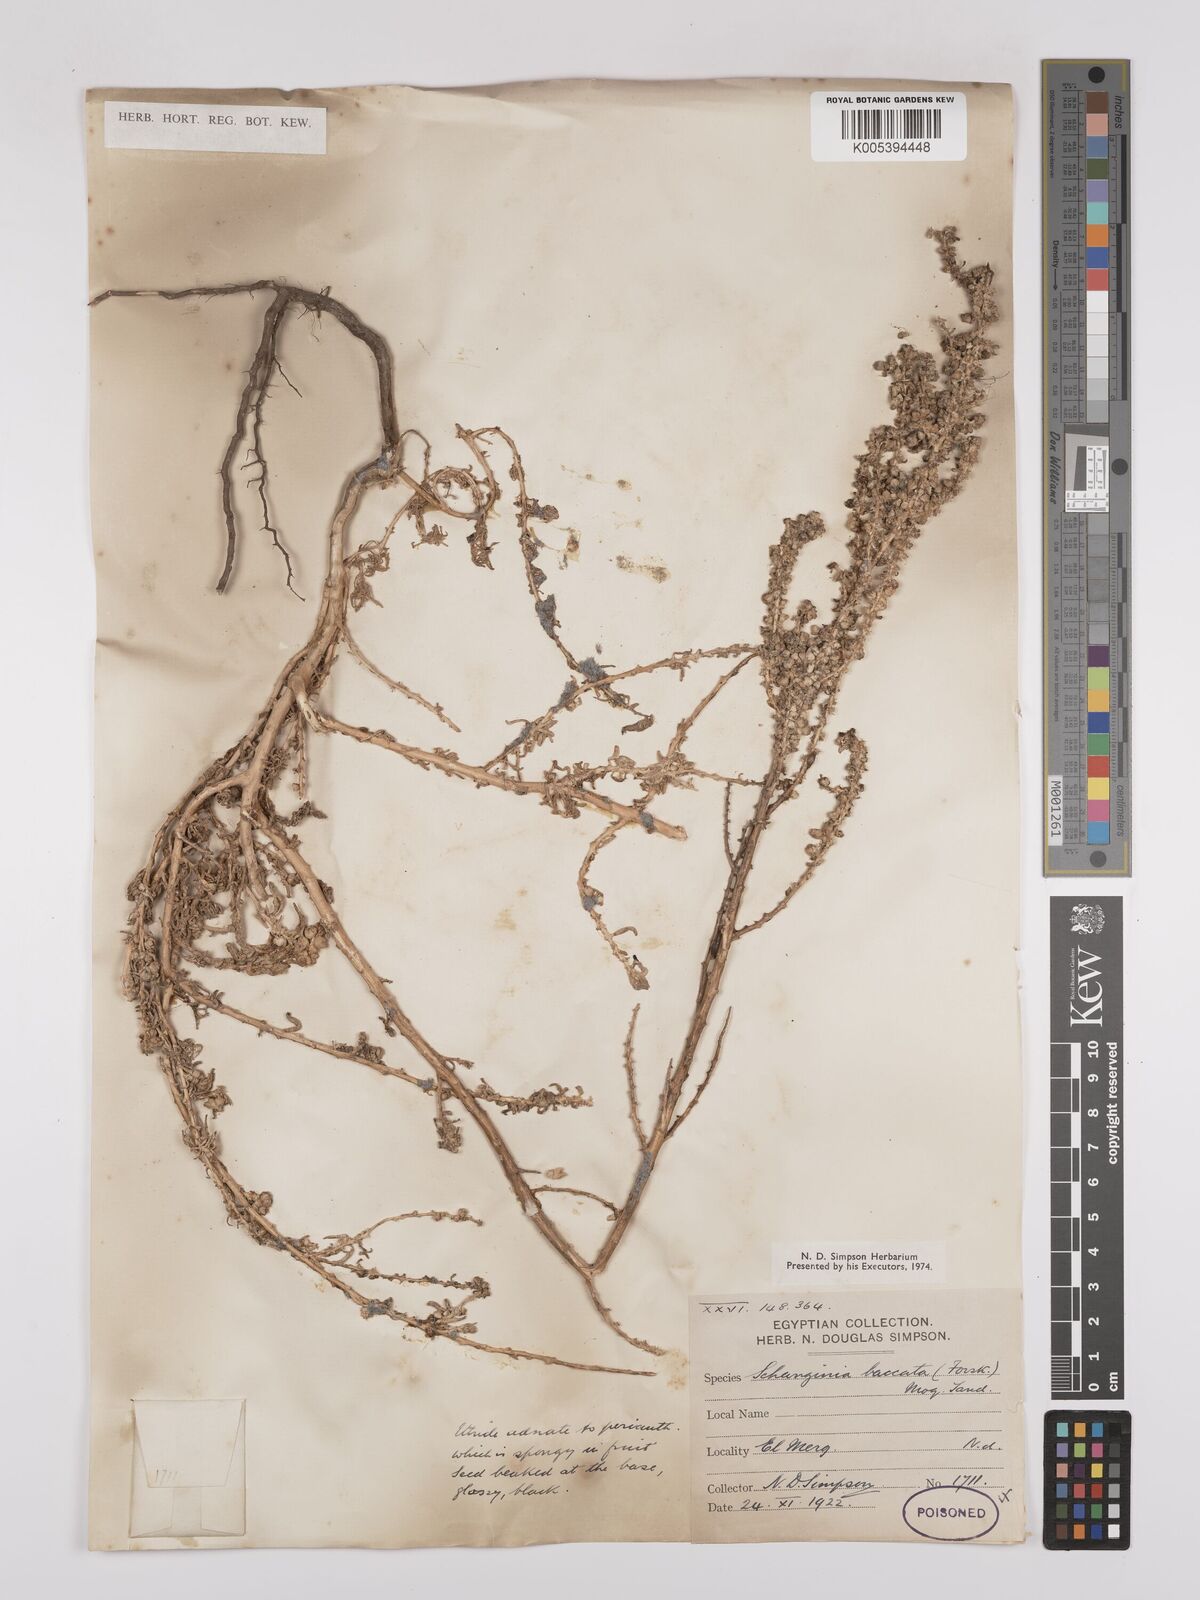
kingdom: Plantae
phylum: Tracheophyta
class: Magnoliopsida
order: Caryophyllales
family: Amaranthaceae
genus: Suaeda
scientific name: Suaeda aegyptiaca
